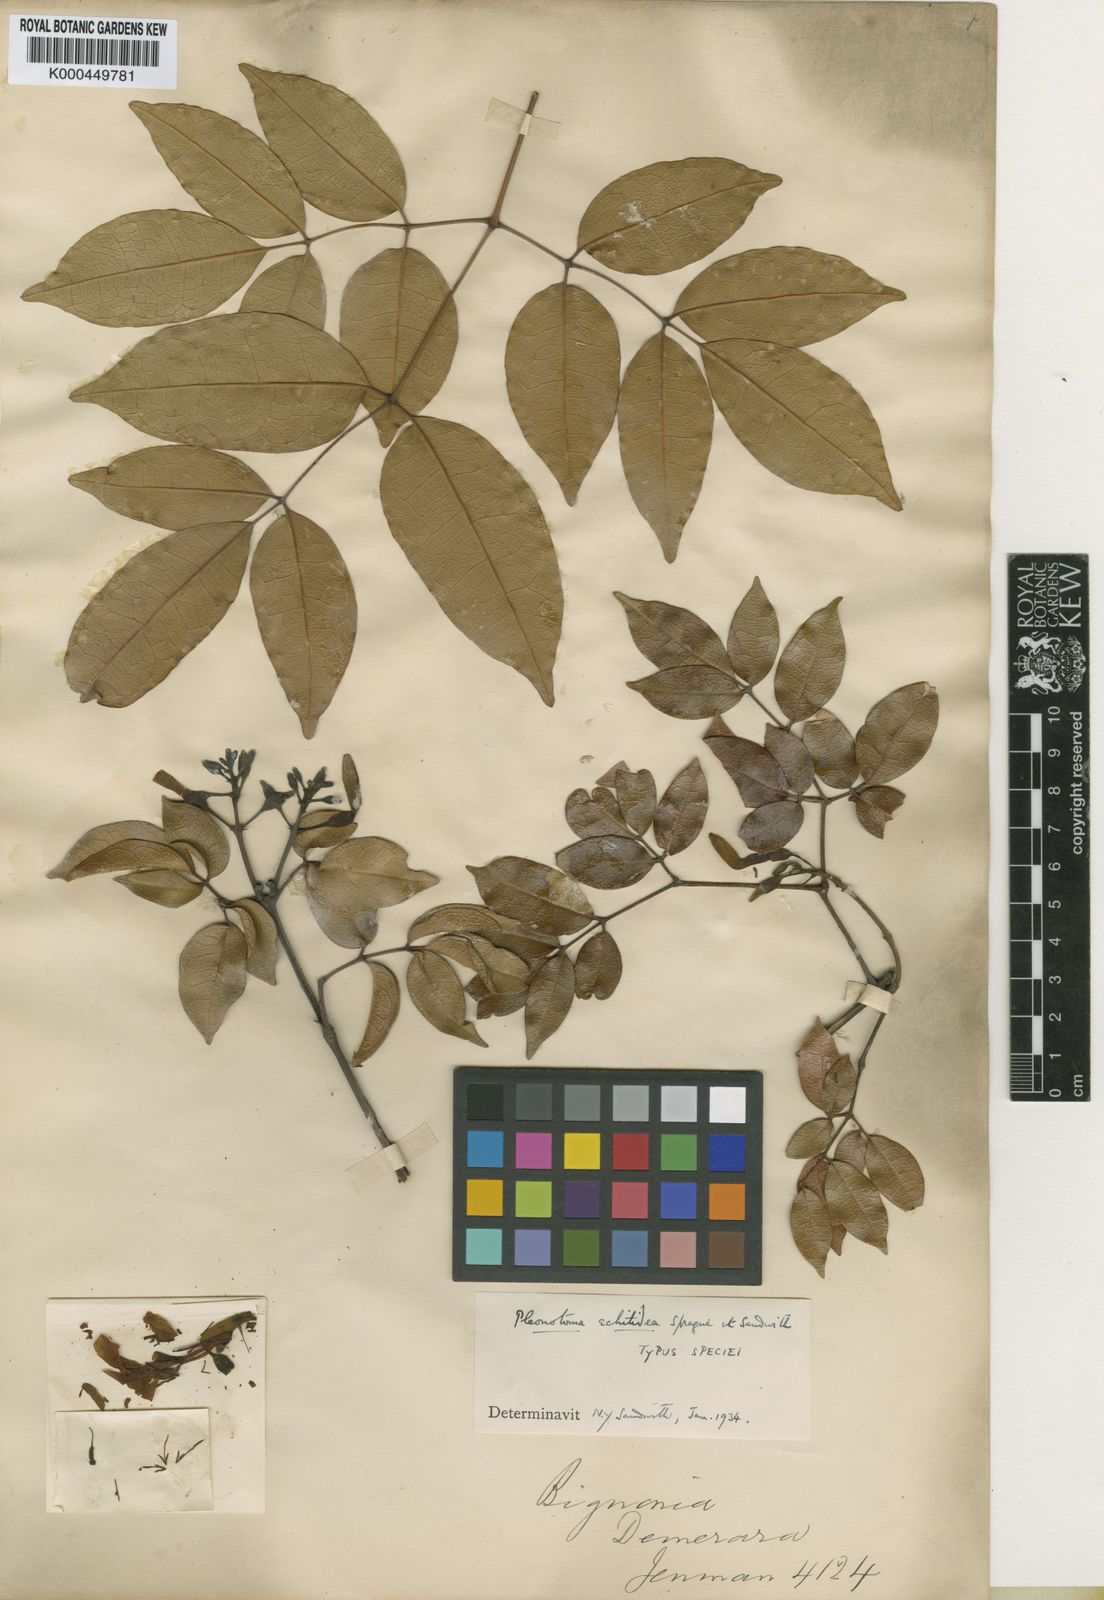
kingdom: Plantae
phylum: Tracheophyta
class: Magnoliopsida
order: Lamiales
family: Bignoniaceae
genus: Pleonotoma
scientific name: Pleonotoma echitidea
